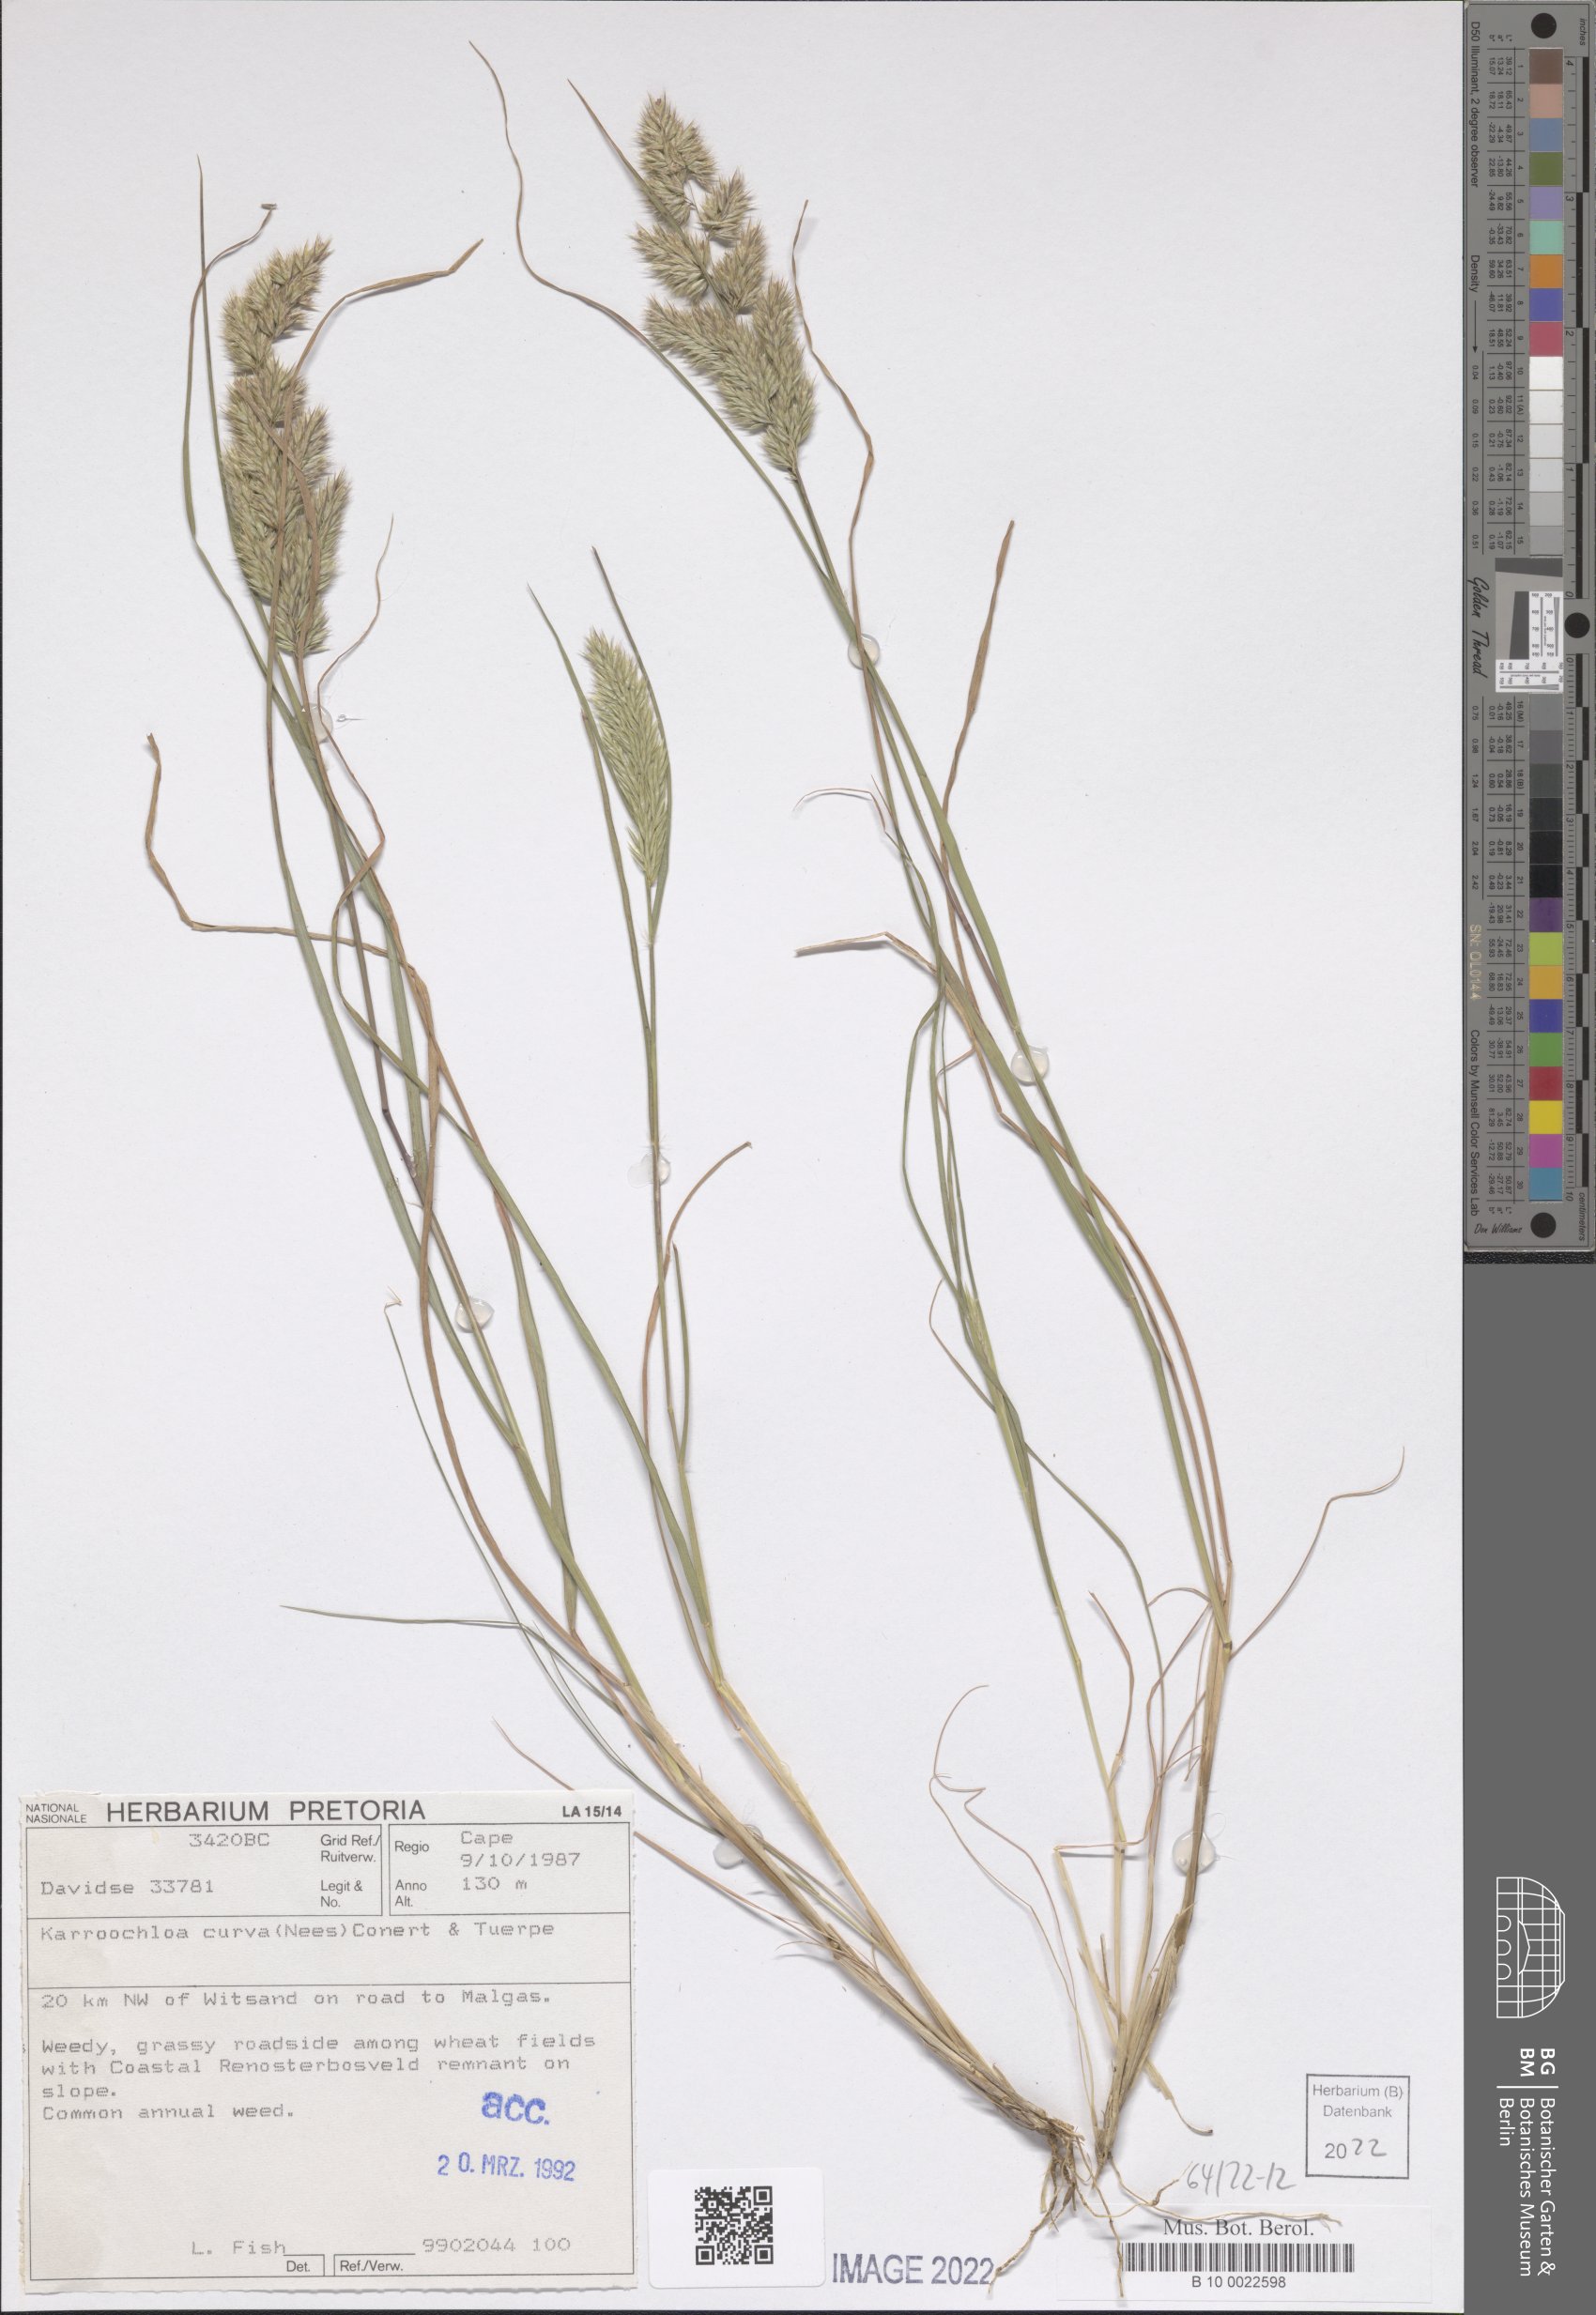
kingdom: Plantae
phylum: Tracheophyta
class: Liliopsida
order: Poales
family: Poaceae
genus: Tribolium
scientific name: Tribolium curvum
